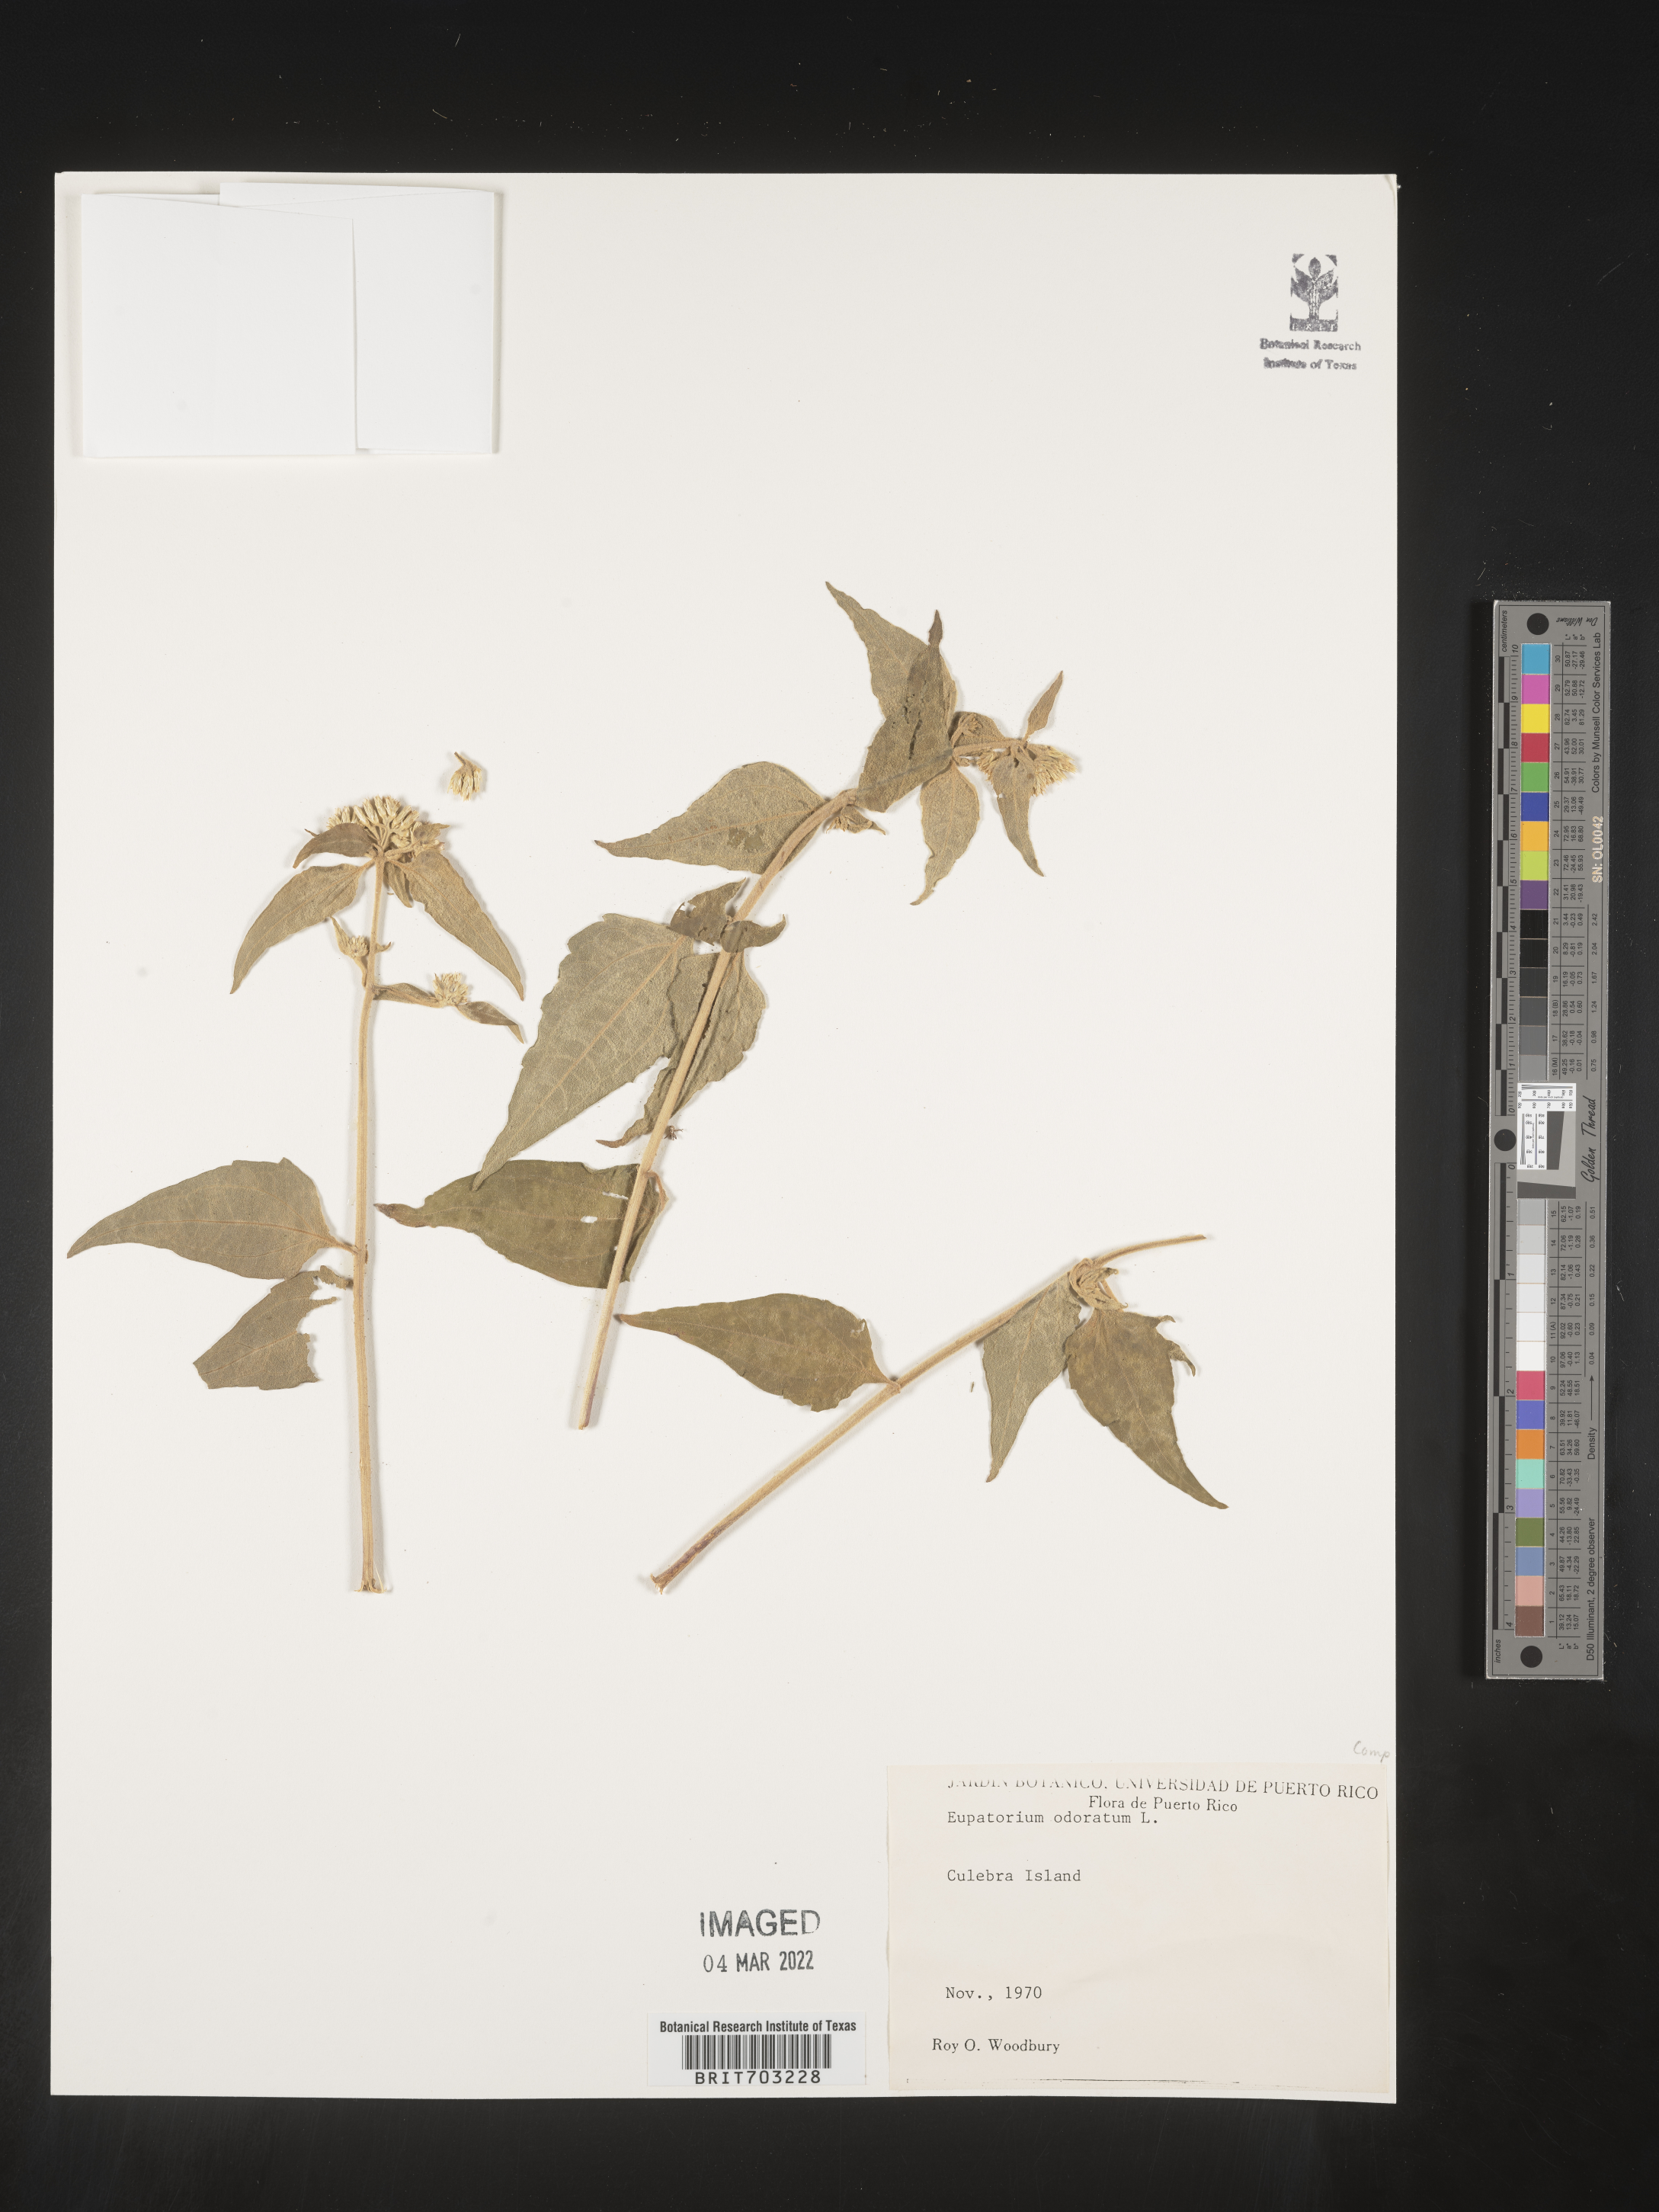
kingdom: Plantae
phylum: Tracheophyta
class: Magnoliopsida
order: Asterales
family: Asteraceae
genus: Eupatorium
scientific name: Eupatorium
